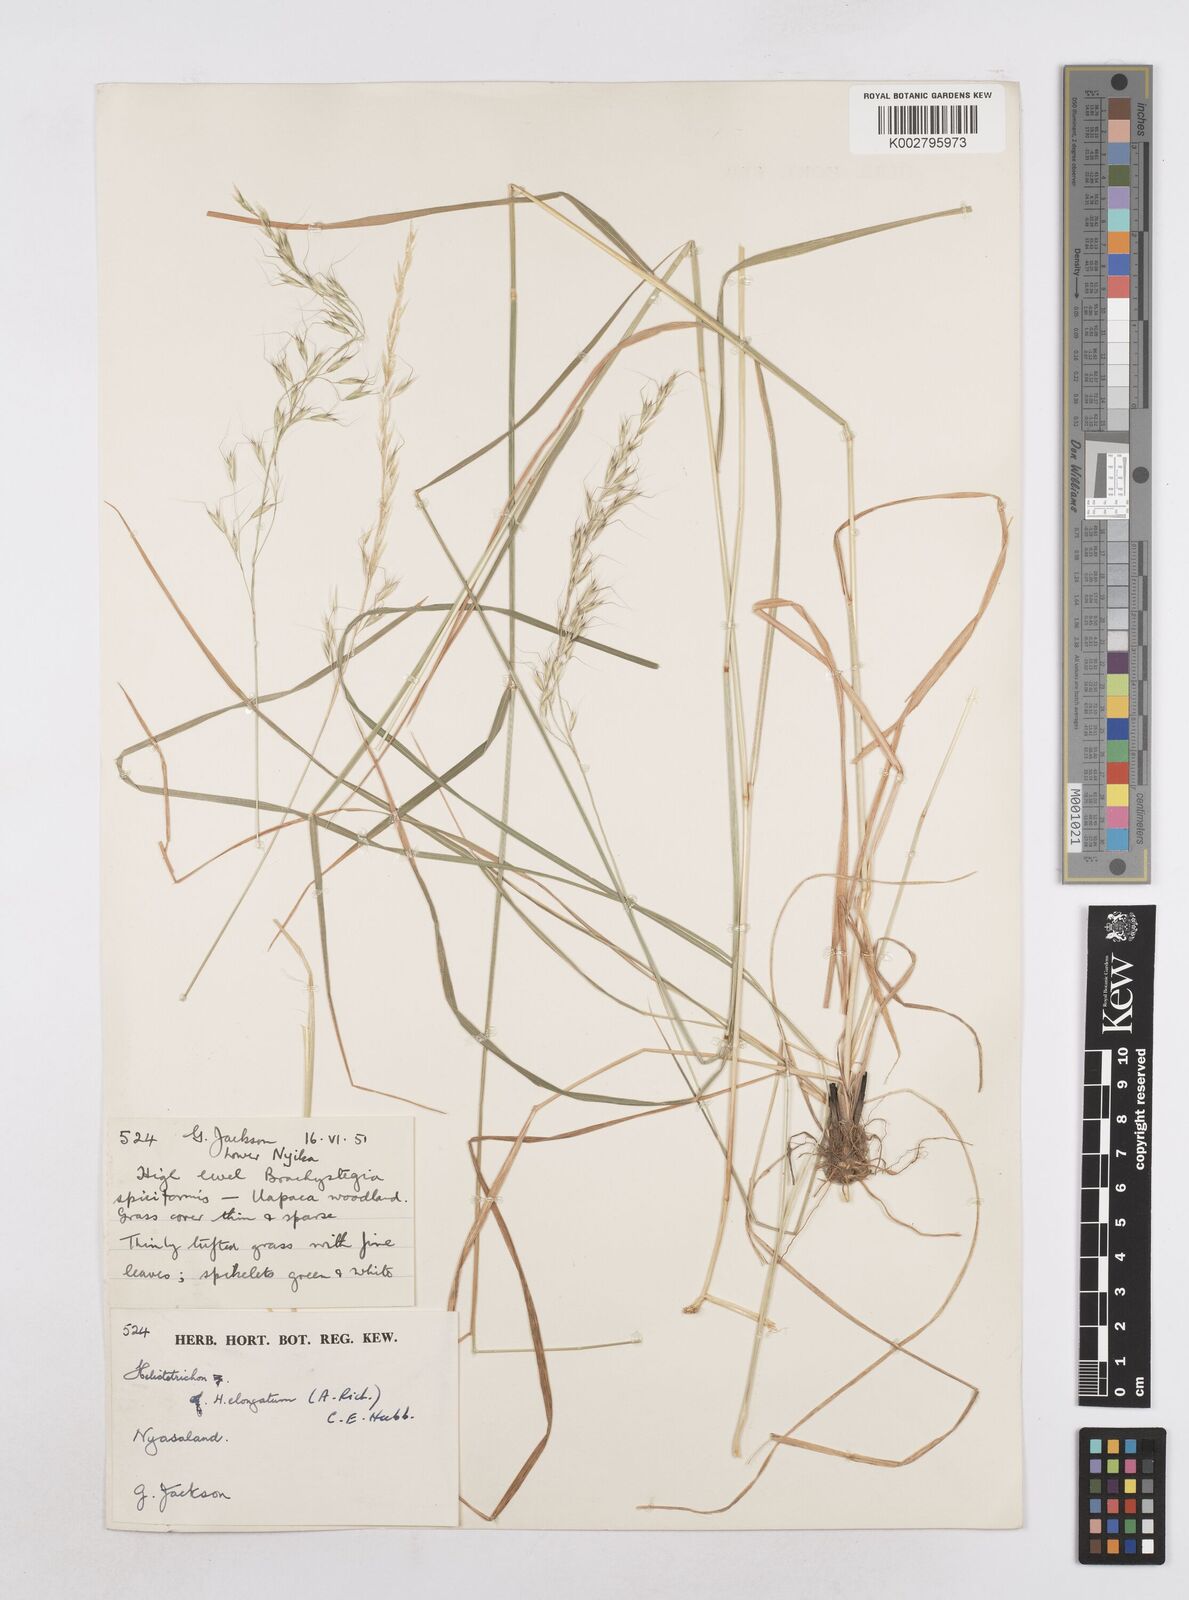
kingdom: Plantae
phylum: Tracheophyta
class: Liliopsida
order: Poales
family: Poaceae
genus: Trisetopsis
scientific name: Trisetopsis elongata
